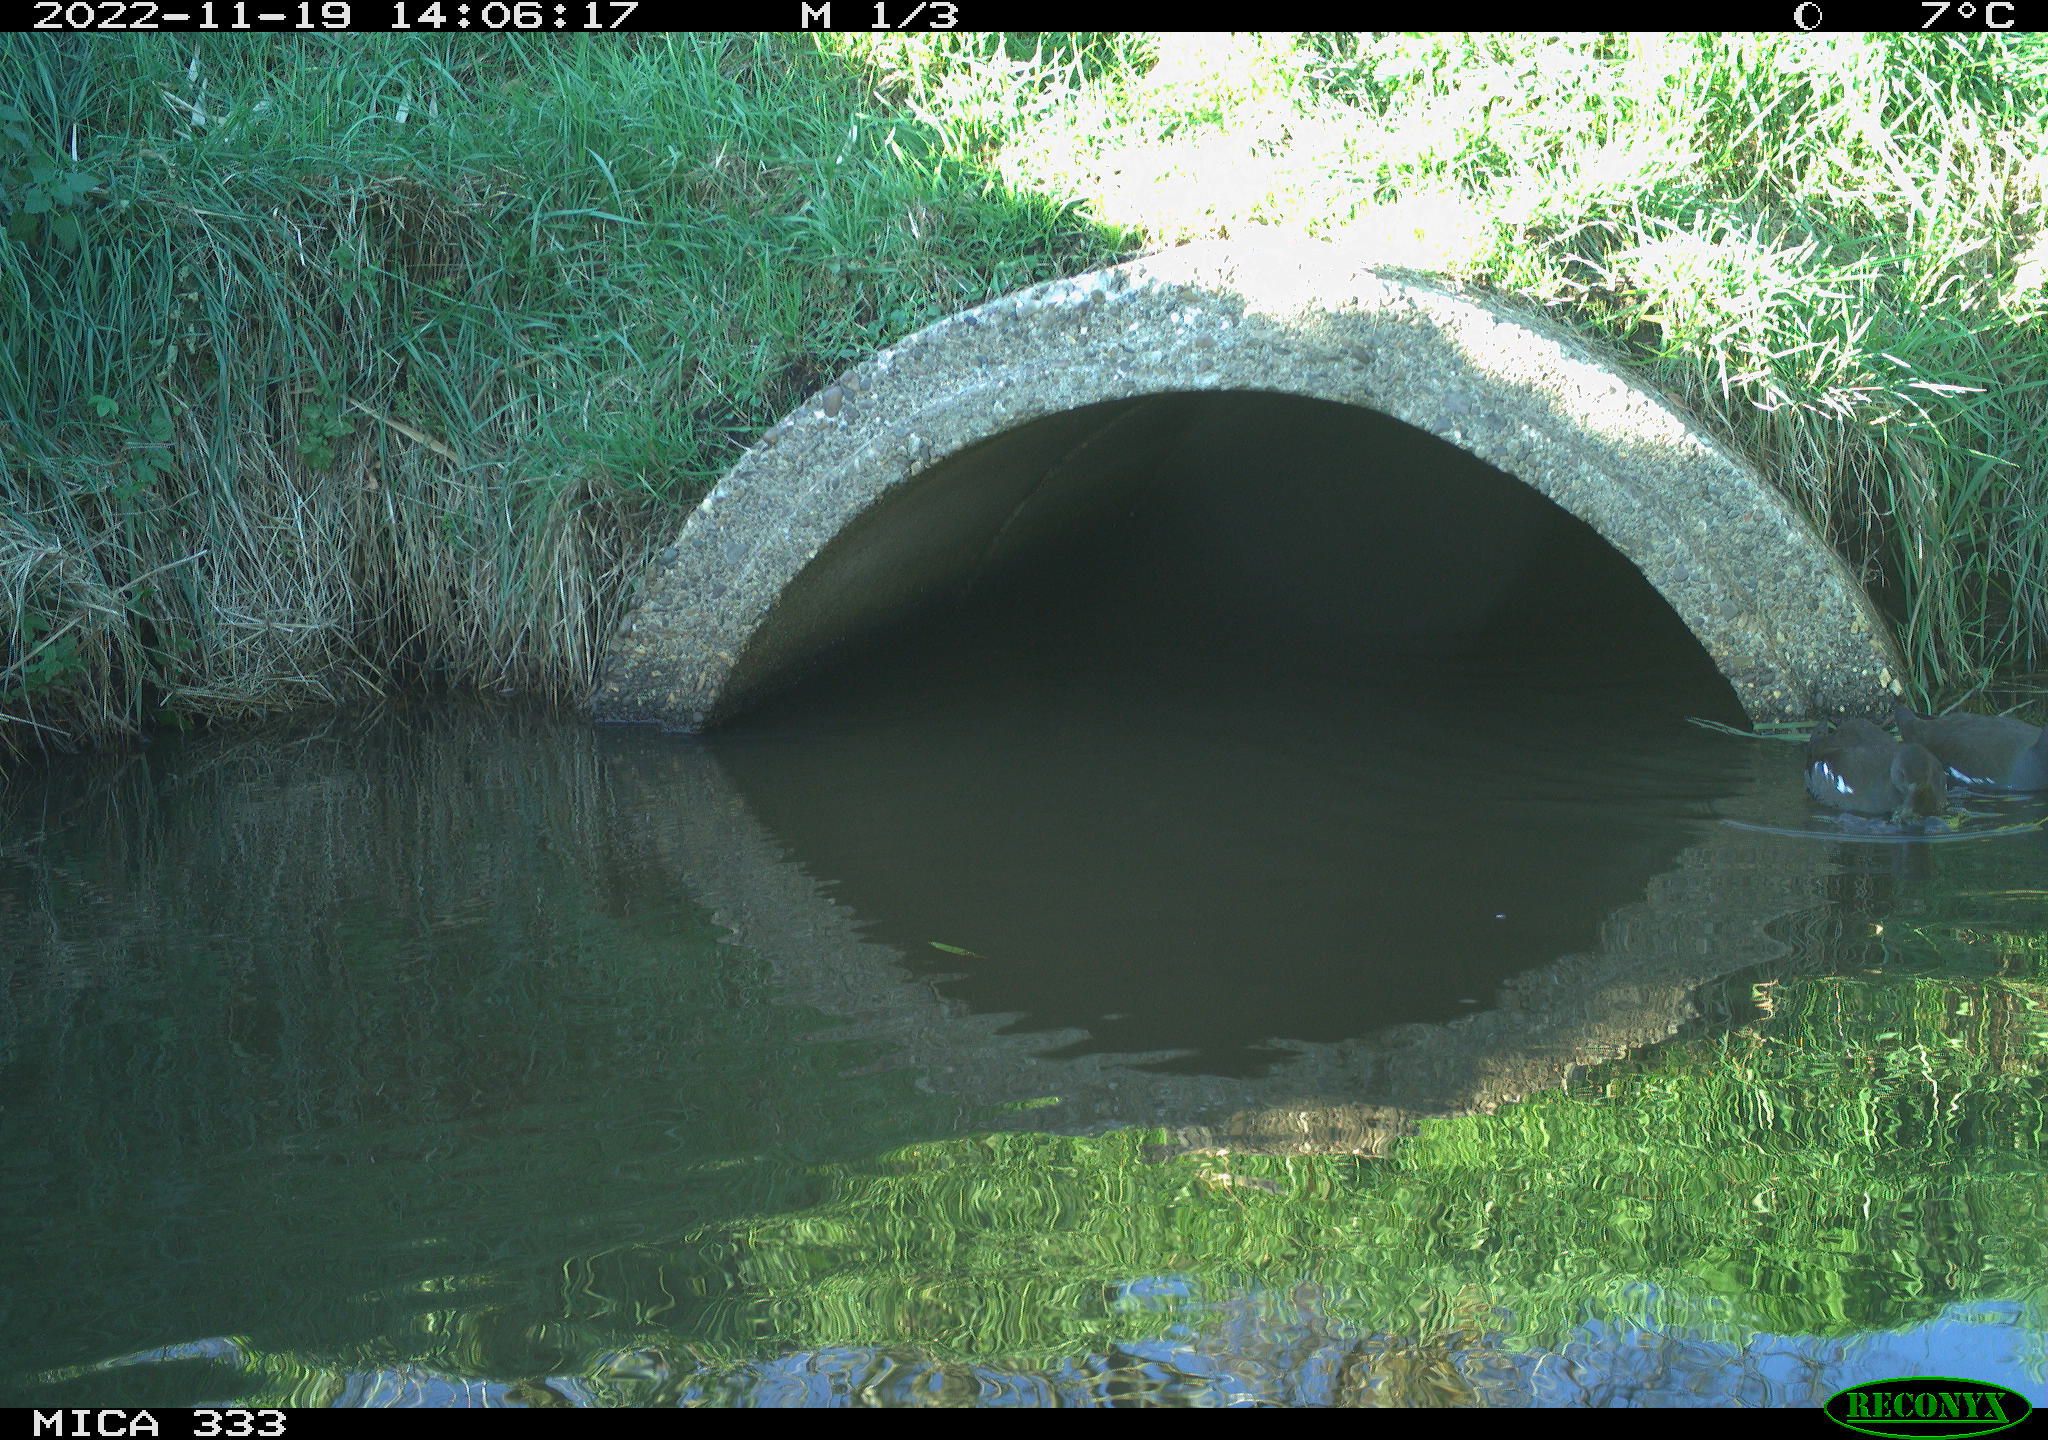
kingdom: Animalia
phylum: Chordata
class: Aves
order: Gruiformes
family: Rallidae
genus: Gallinula
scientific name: Gallinula chloropus
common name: Common moorhen
